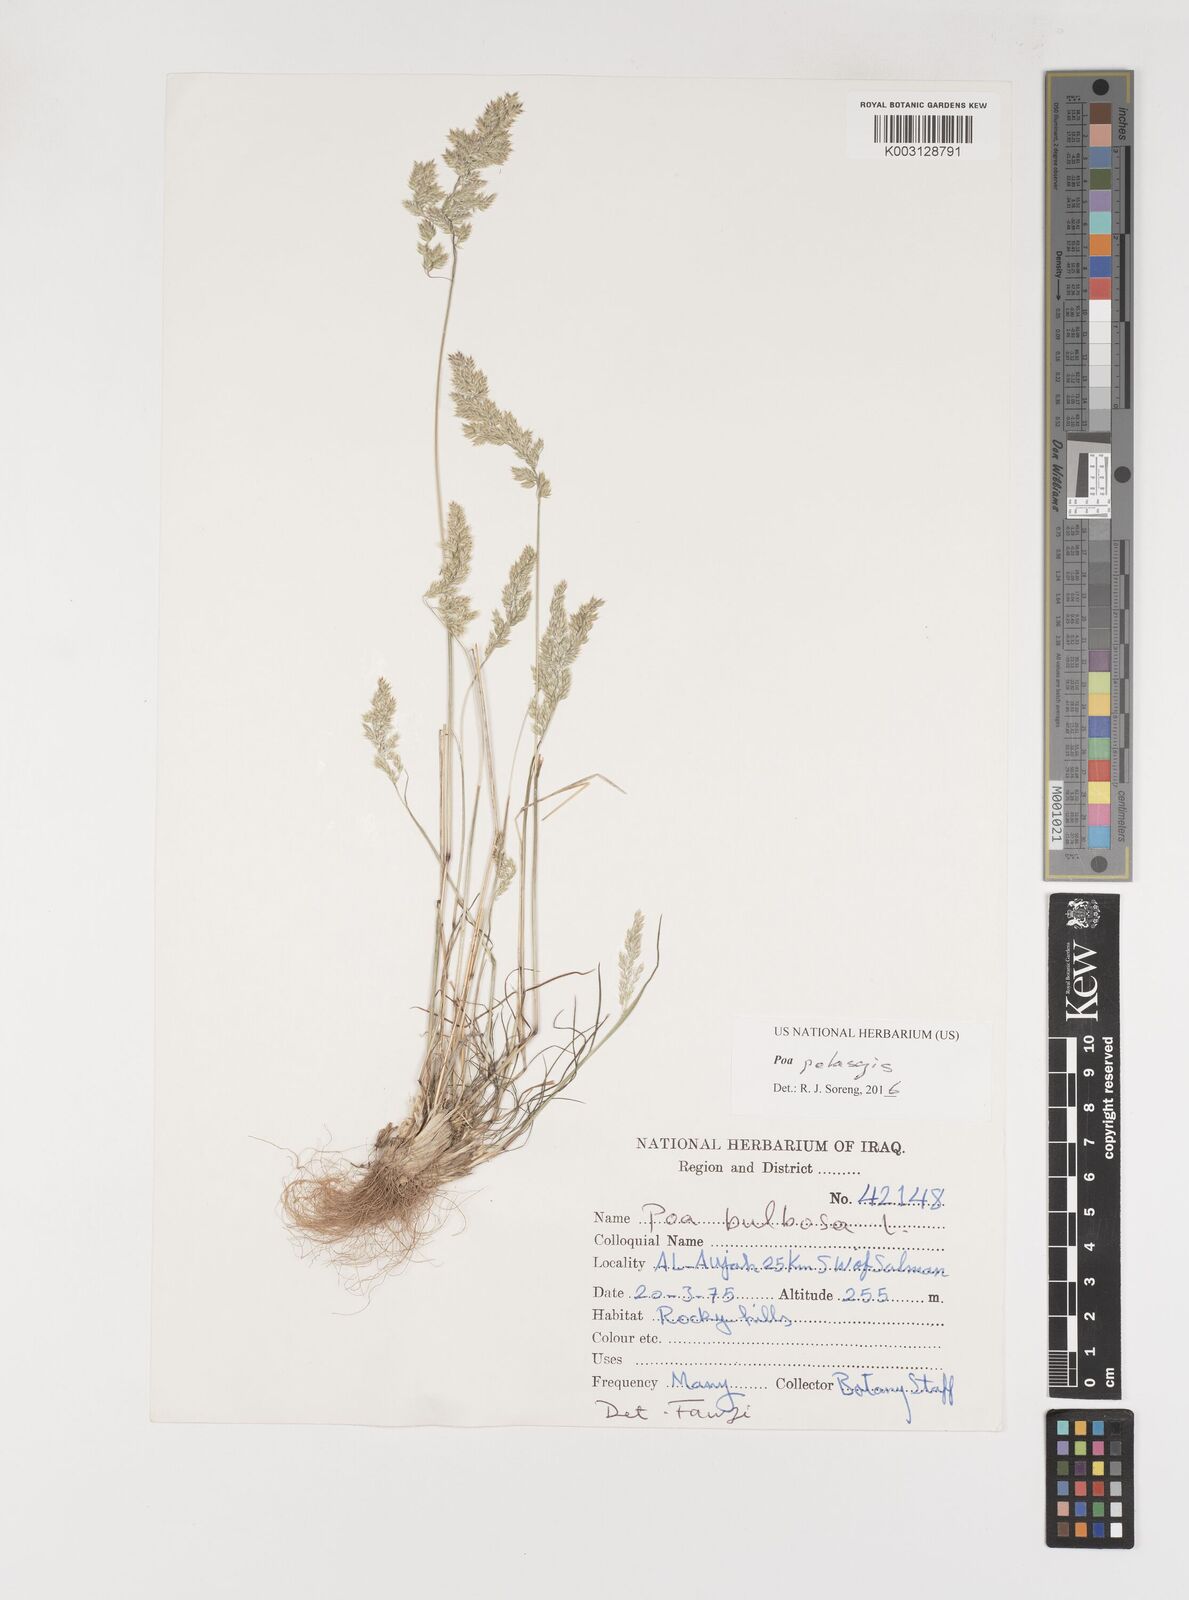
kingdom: Plantae
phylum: Tracheophyta
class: Liliopsida
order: Poales
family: Poaceae
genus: Poa
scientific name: Poa iconia
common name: Konya bluegrass
